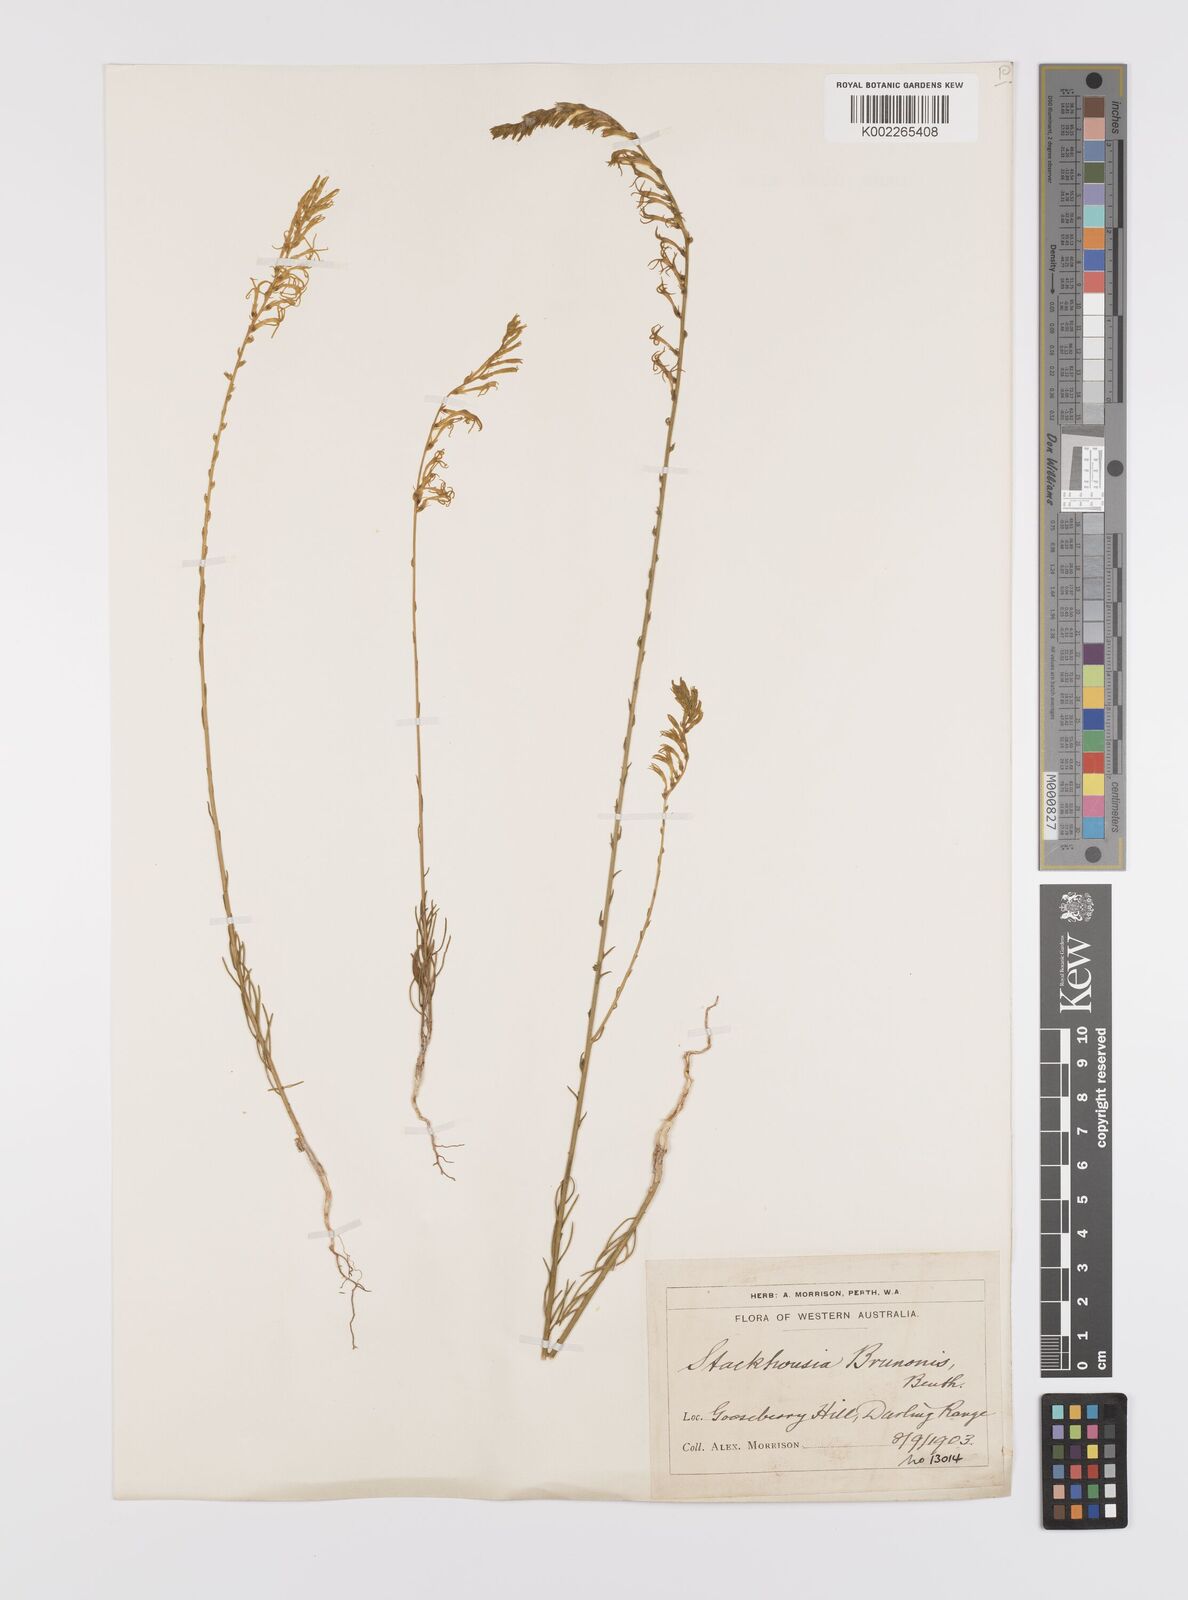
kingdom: Plantae
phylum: Tracheophyta
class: Magnoliopsida
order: Celastrales
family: Celastraceae
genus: Tripterococcus
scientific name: Tripterococcus brunonis
